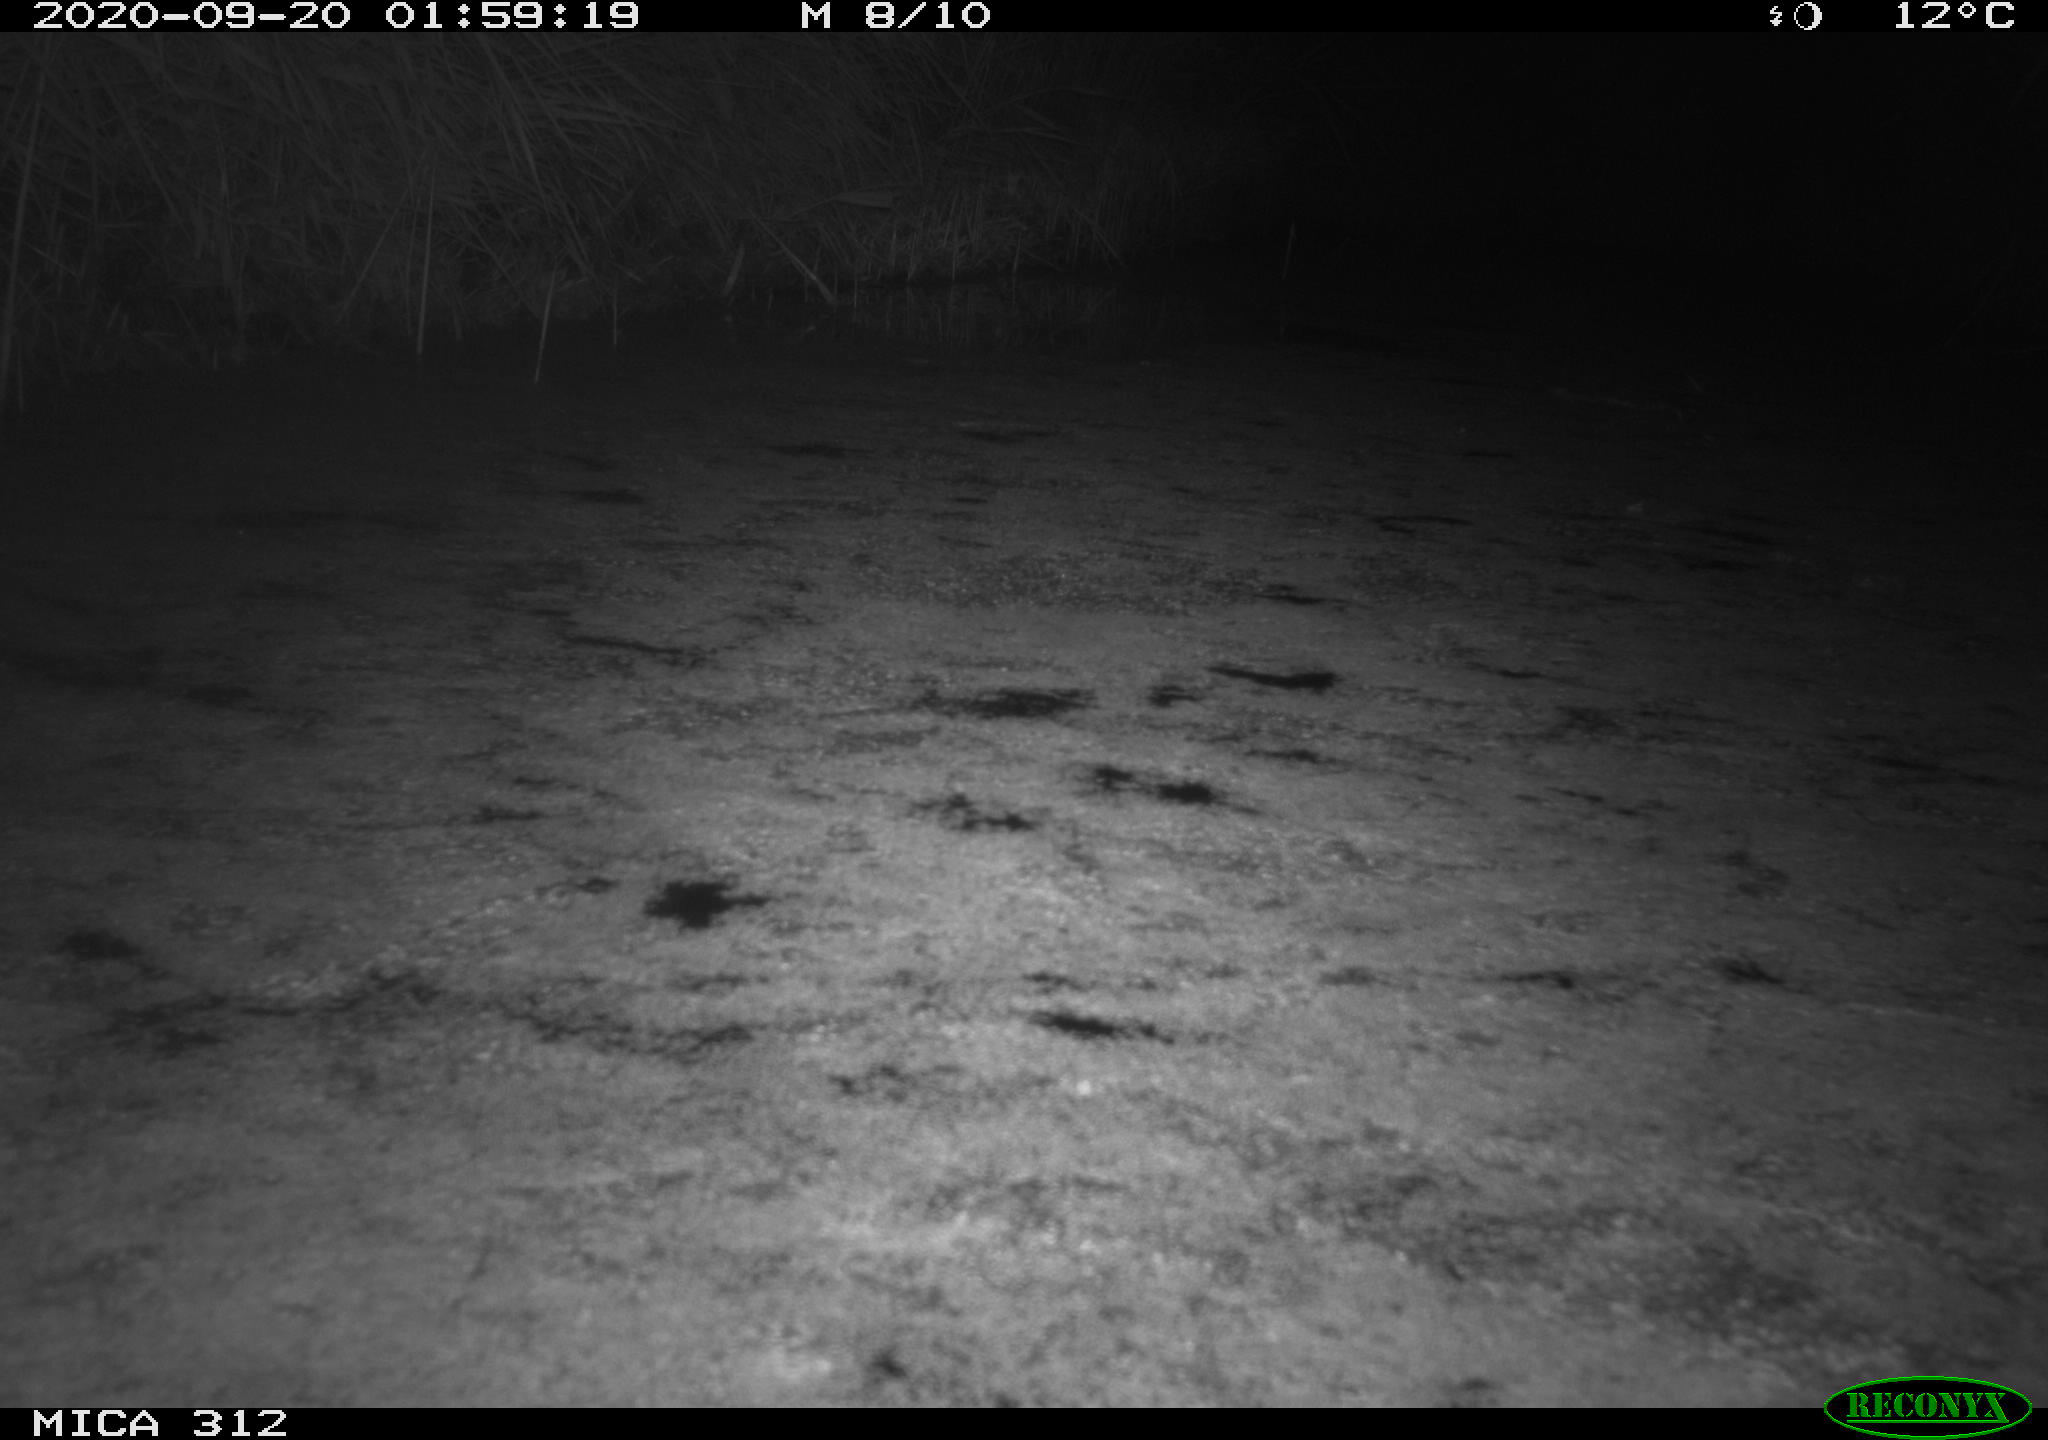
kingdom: Animalia
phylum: Chordata
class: Mammalia
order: Rodentia
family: Muridae
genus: Rattus
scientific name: Rattus norvegicus
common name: Brown rat
